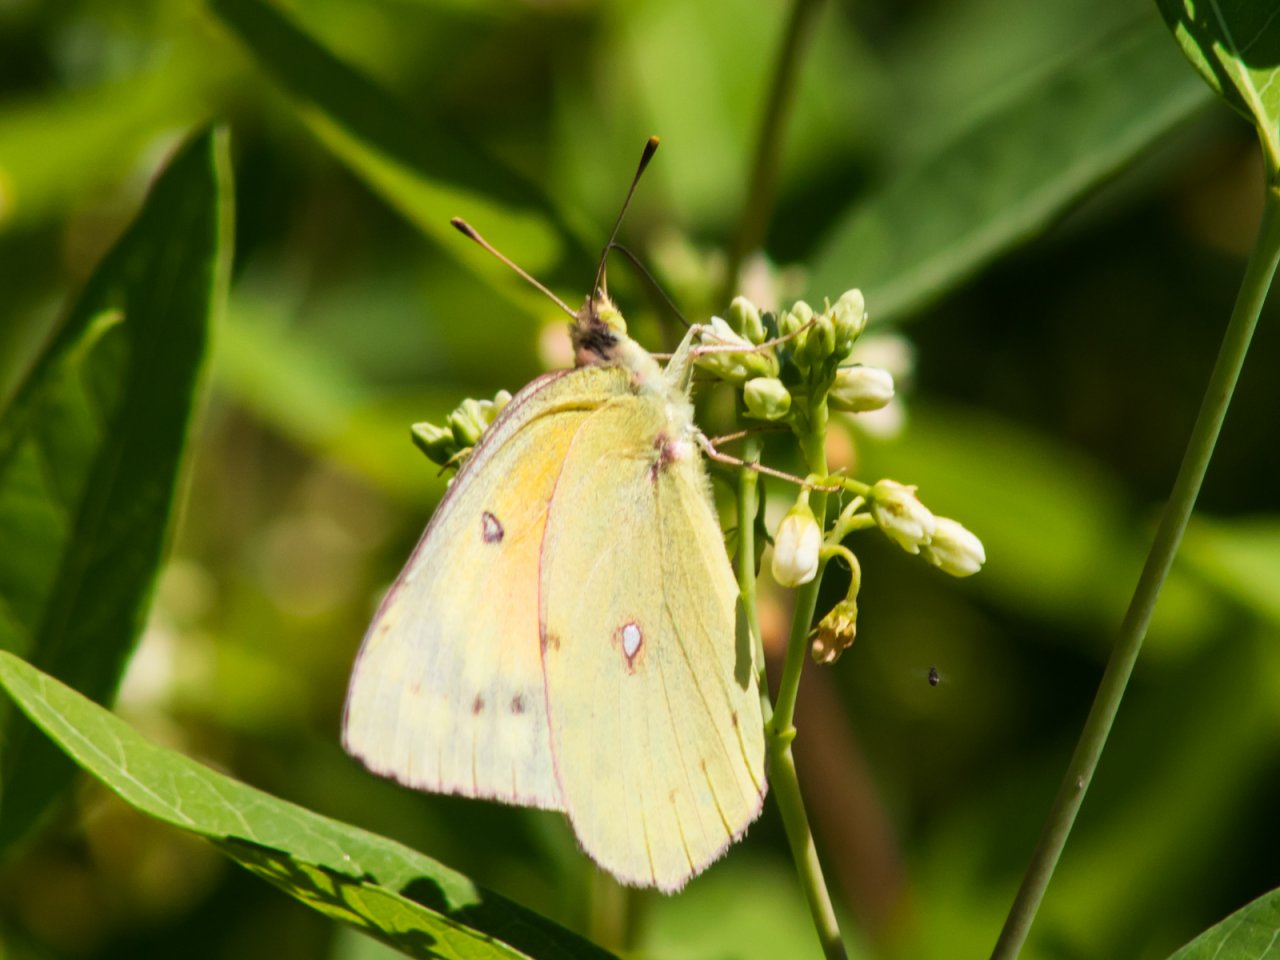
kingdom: Animalia
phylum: Arthropoda
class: Insecta
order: Lepidoptera
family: Pieridae
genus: Colias
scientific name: Colias eurytheme
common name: Orange Sulphur
